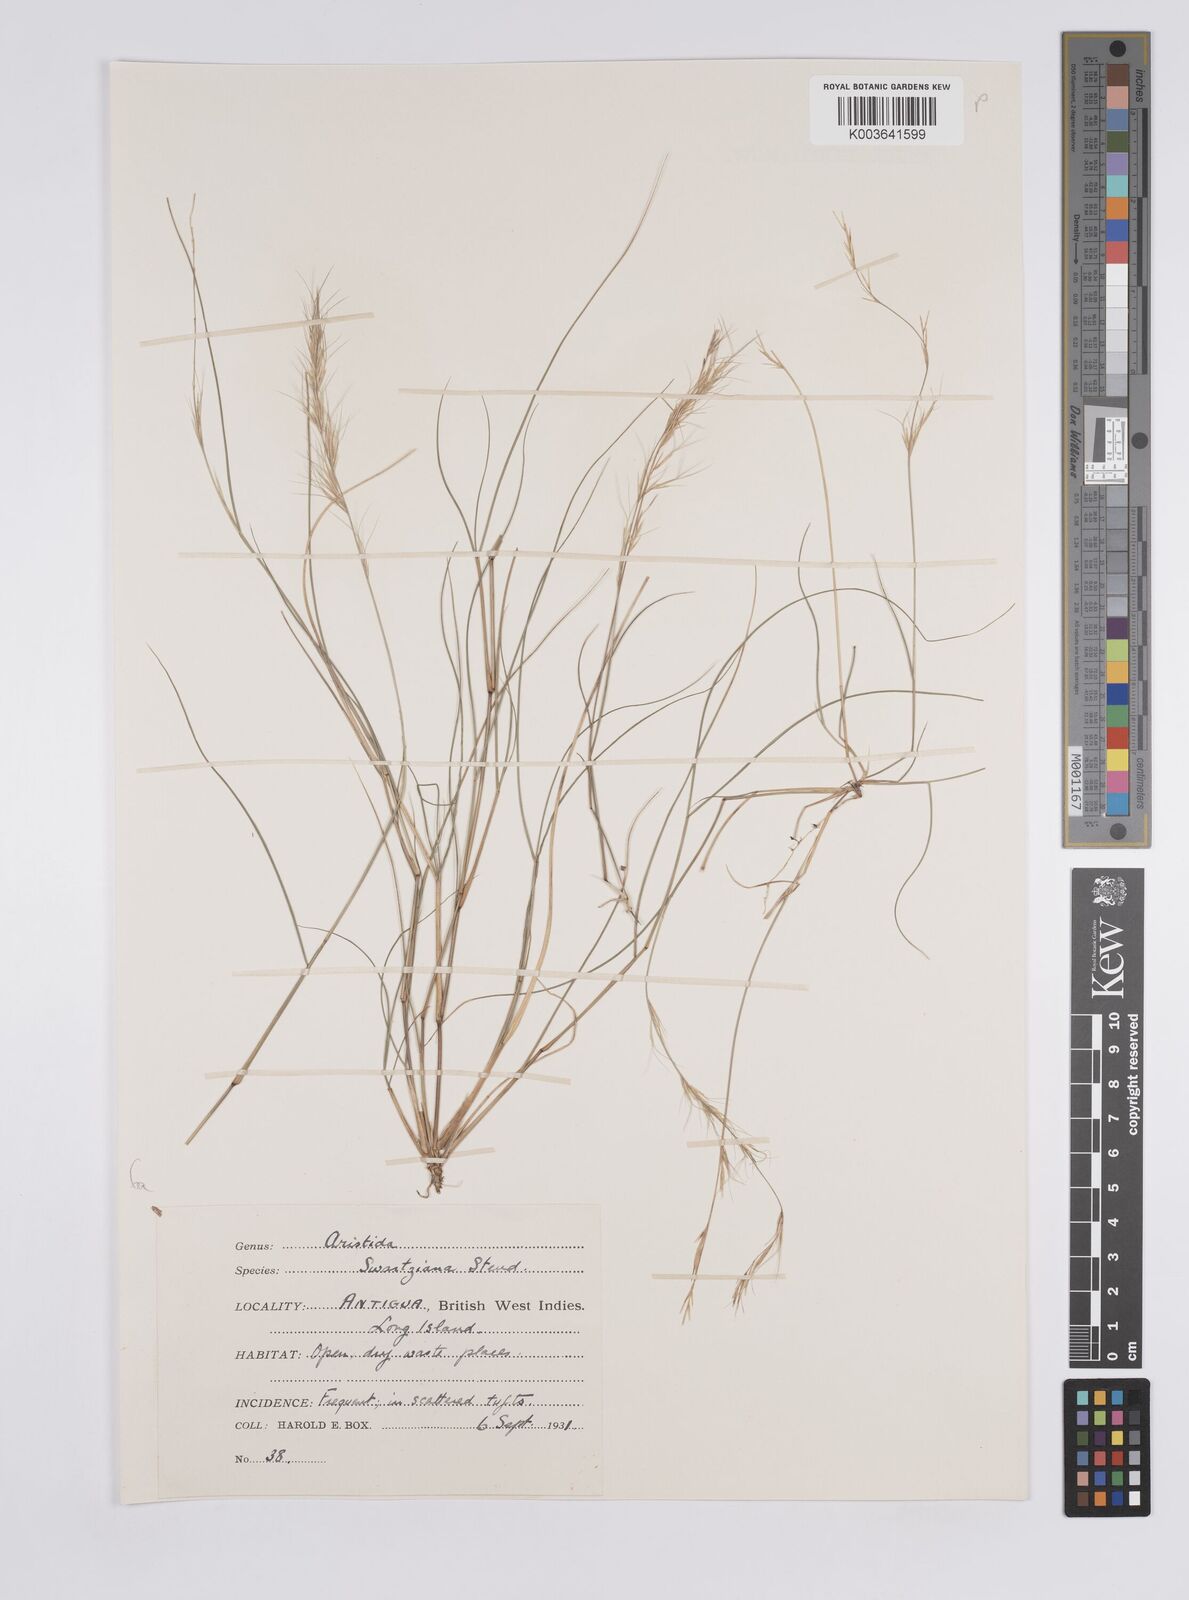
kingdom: Plantae
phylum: Tracheophyta
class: Liliopsida
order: Poales
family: Poaceae
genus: Aristida
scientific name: Aristida adscensionis
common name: Sixweeks threeawn
